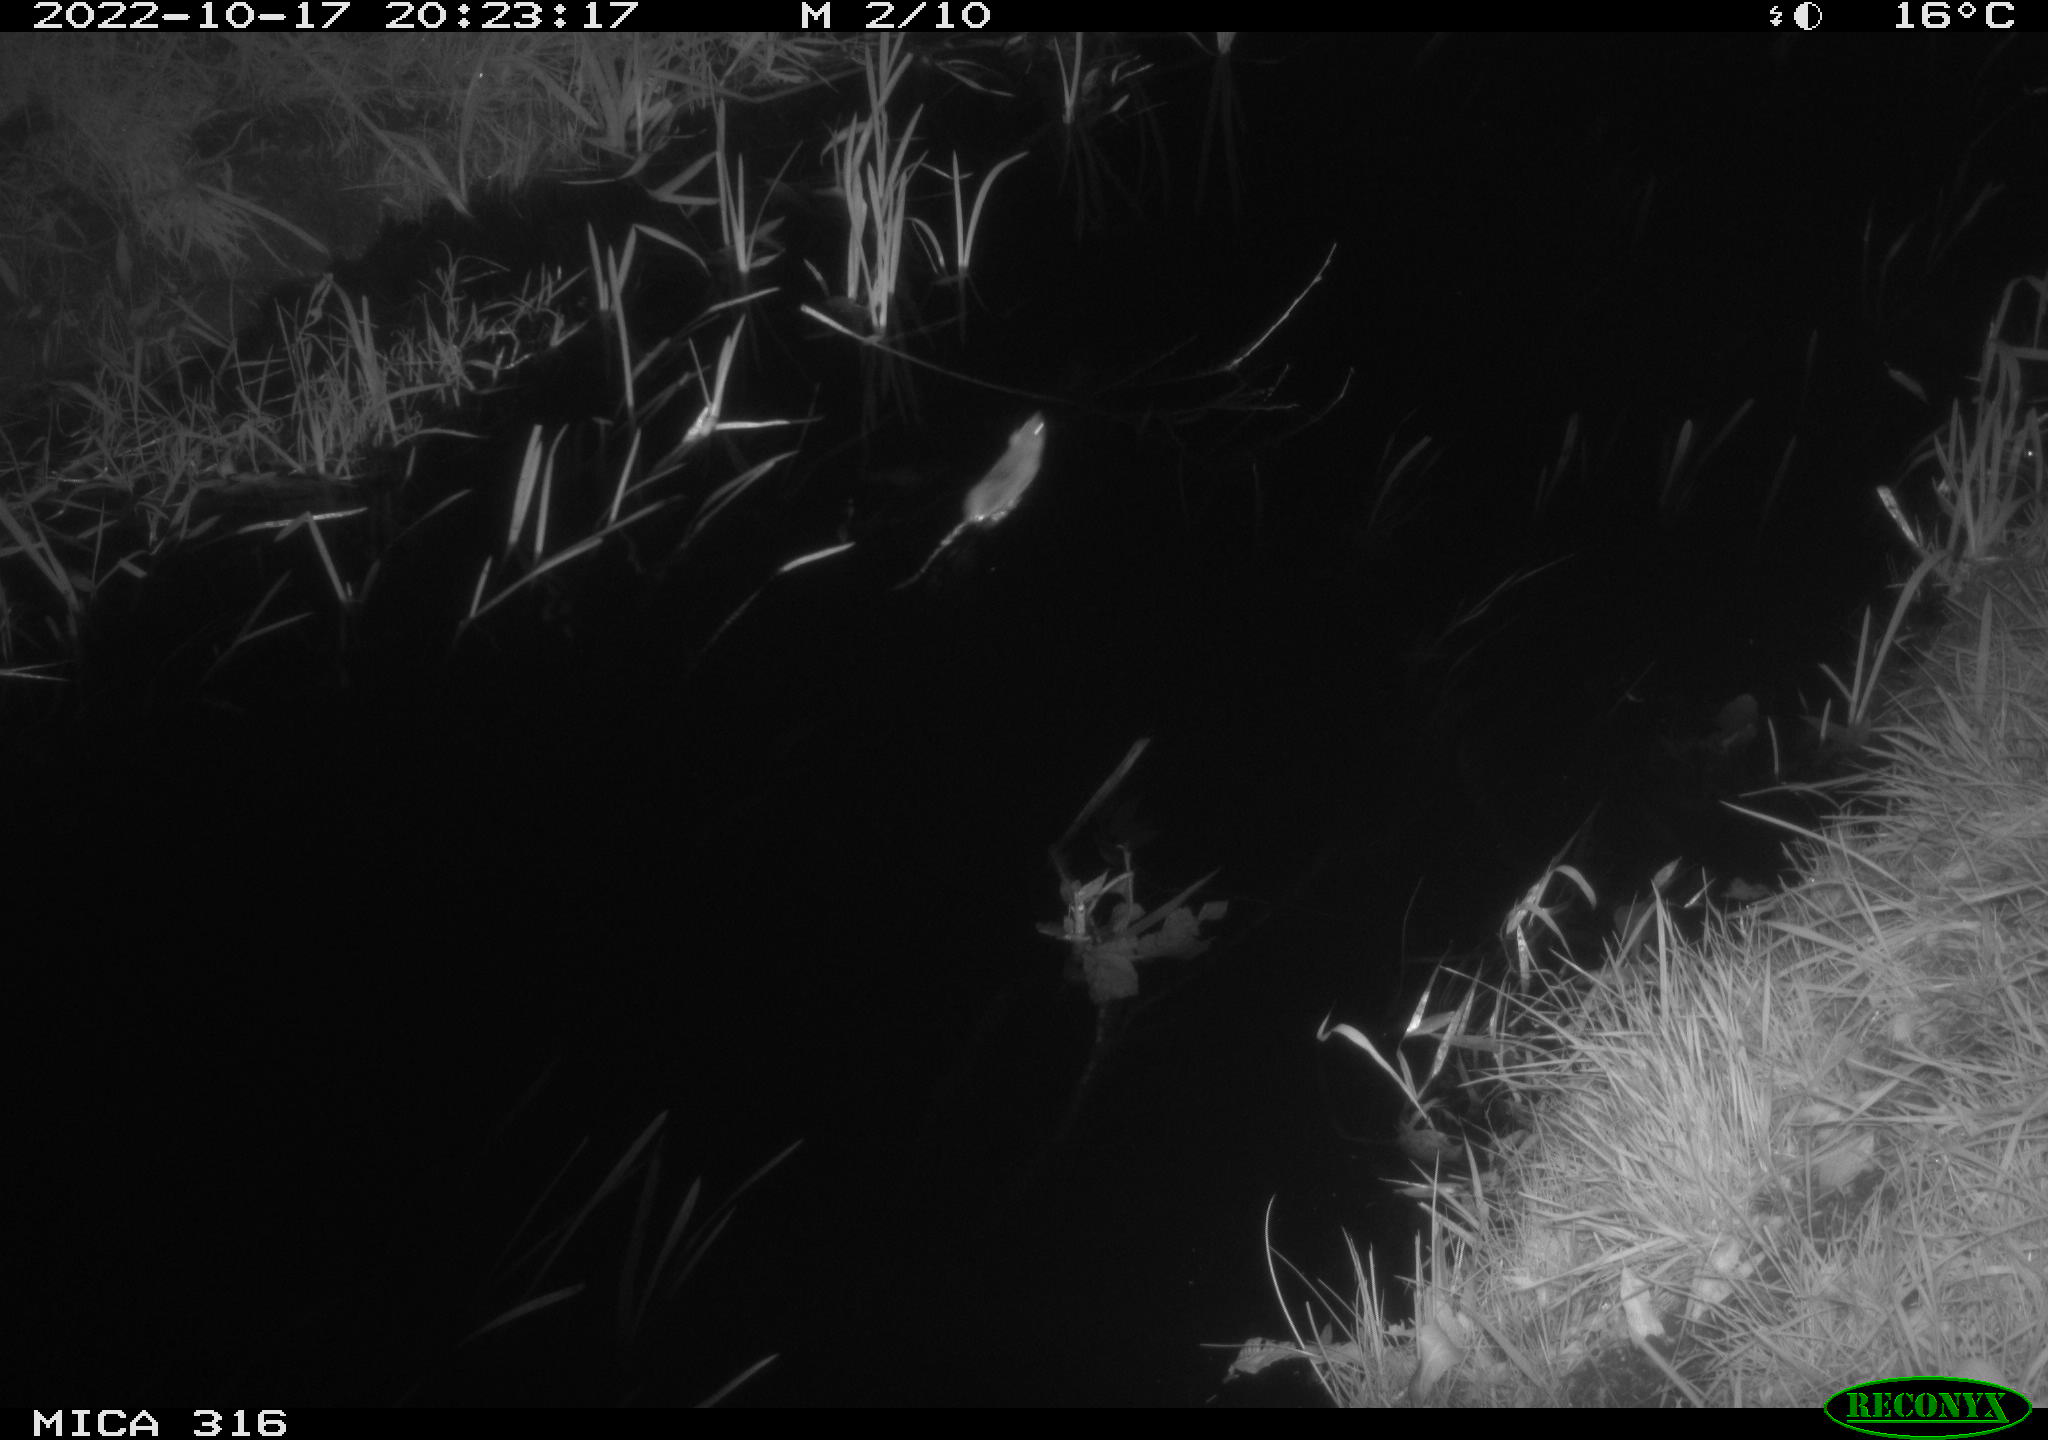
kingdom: Animalia
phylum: Chordata
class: Mammalia
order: Rodentia
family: Muridae
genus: Rattus
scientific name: Rattus norvegicus
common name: Brown rat
